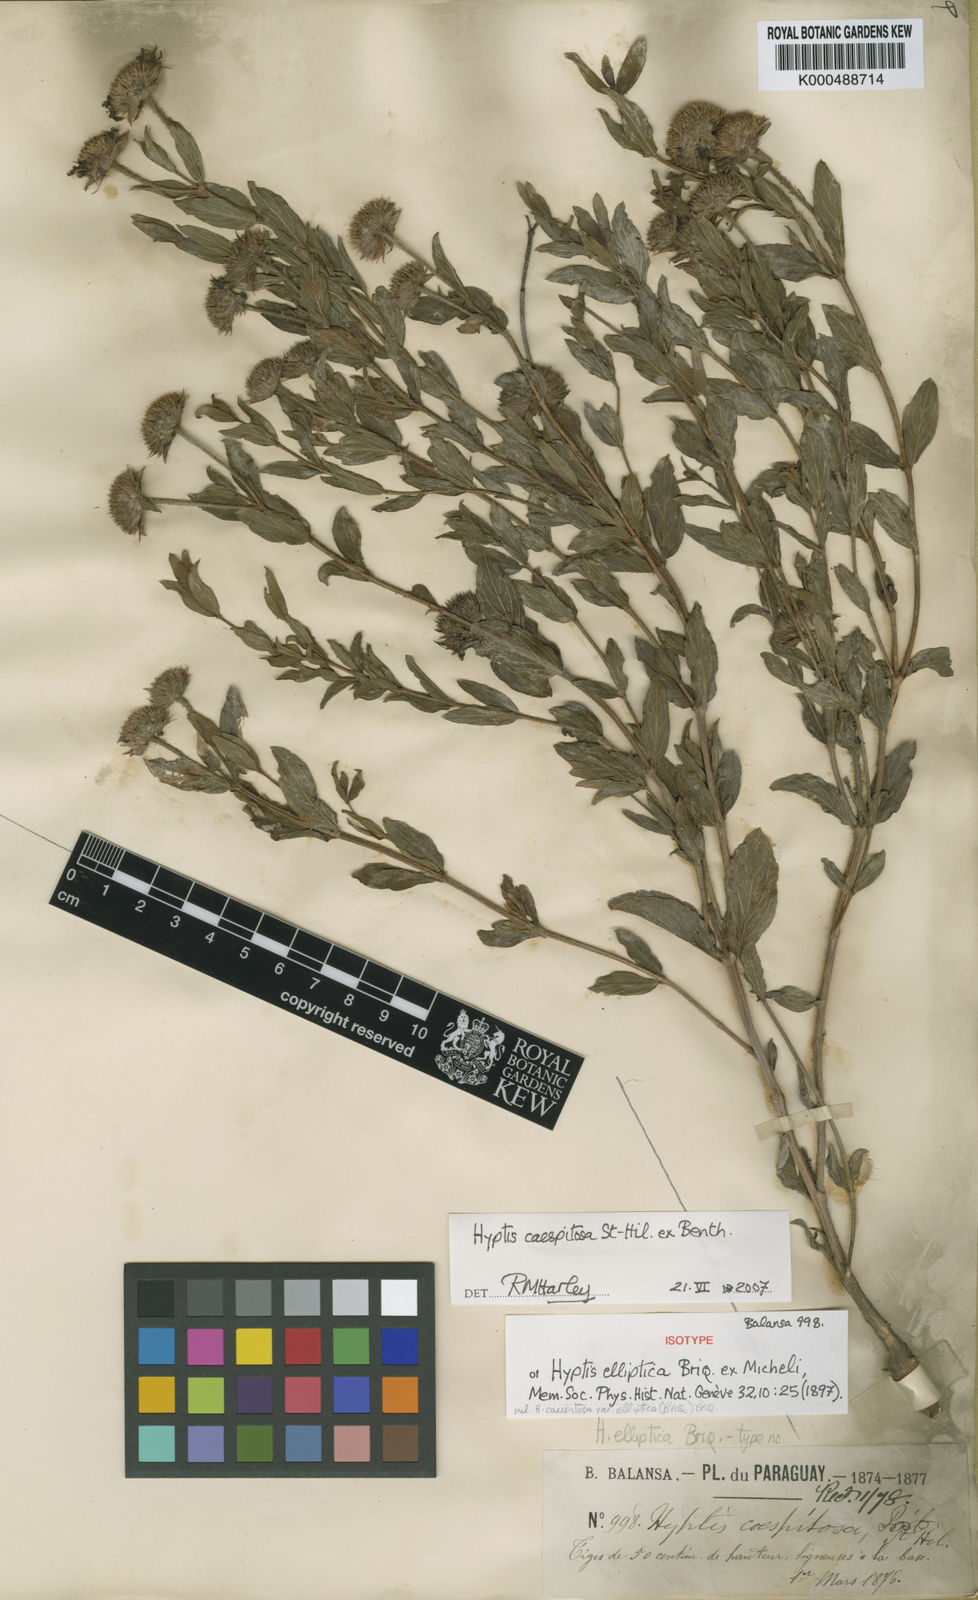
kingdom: Plantae
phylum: Tracheophyta
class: Magnoliopsida
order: Lamiales
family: Lamiaceae
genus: Hyptis
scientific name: Hyptis caespitosa
